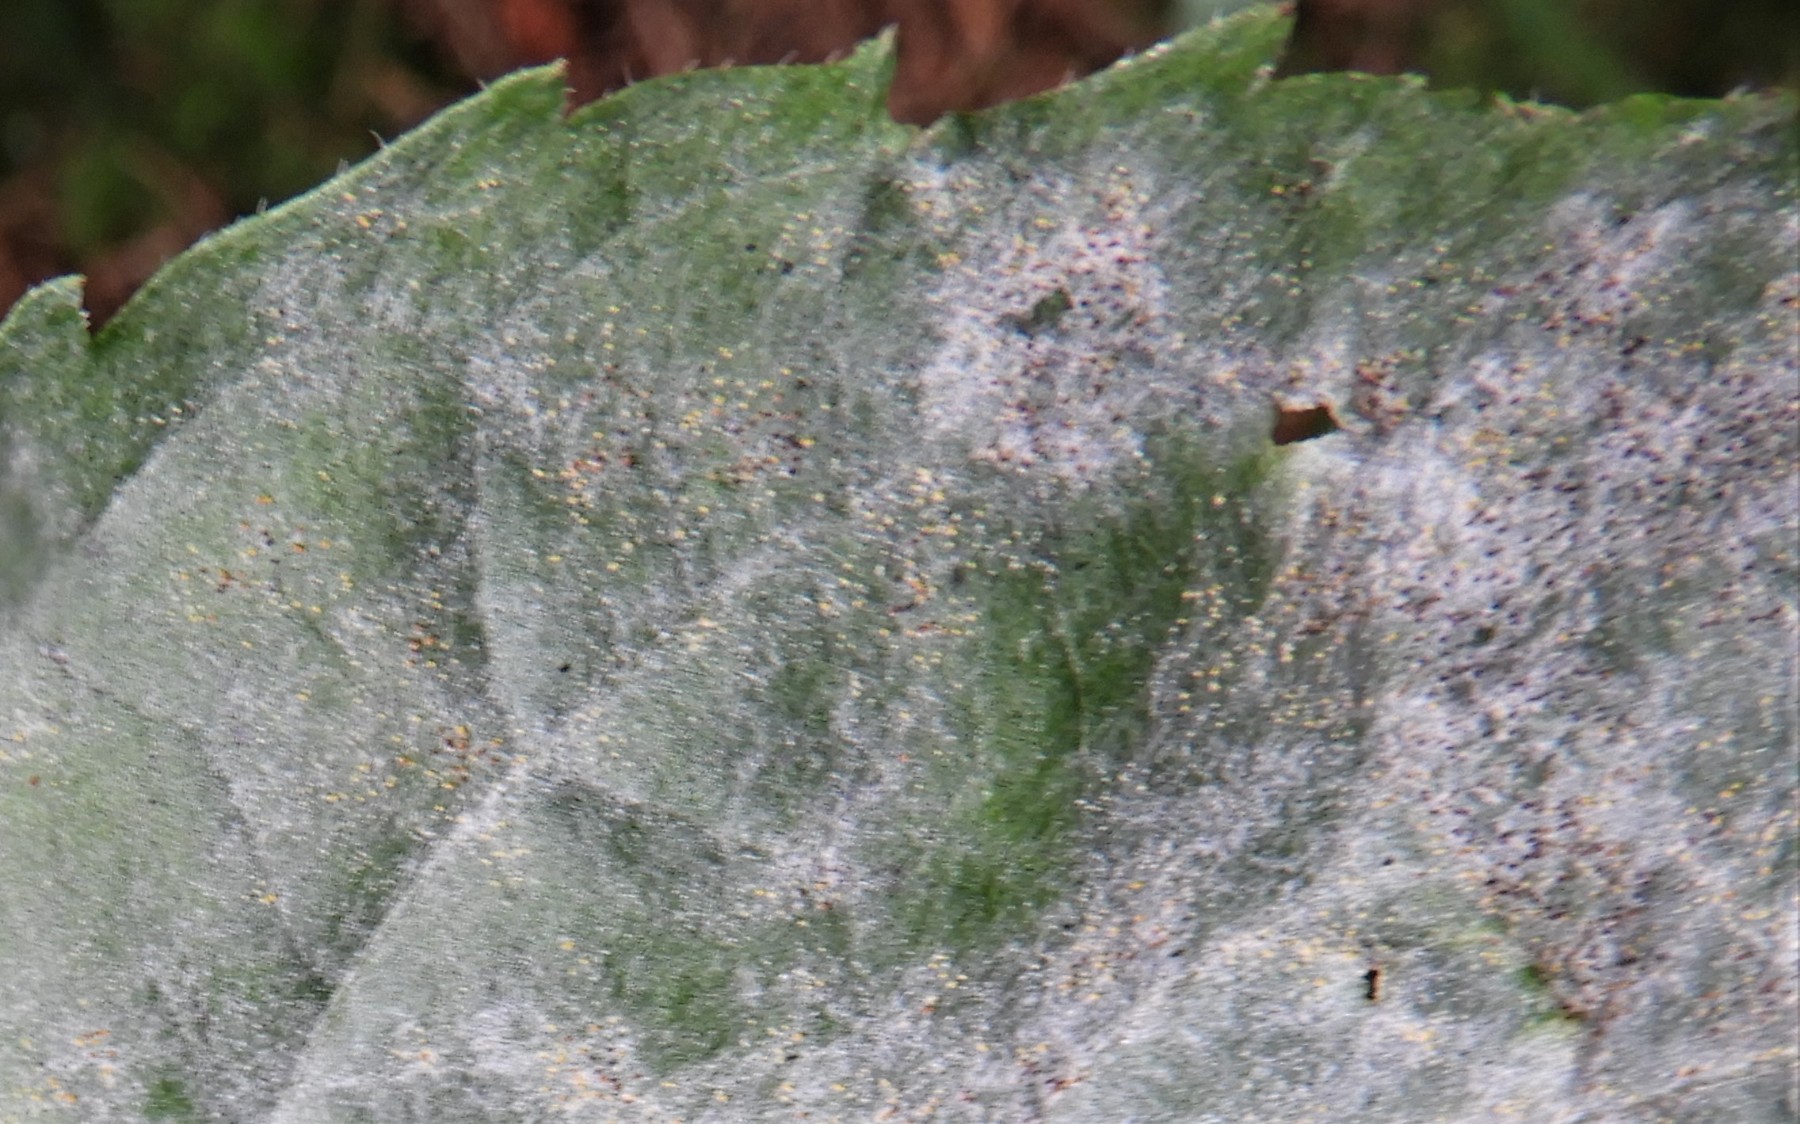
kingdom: Fungi
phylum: Ascomycota
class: Leotiomycetes
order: Helotiales
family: Erysiphaceae
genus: Erysiphe
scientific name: Erysiphe vanbruntiana
